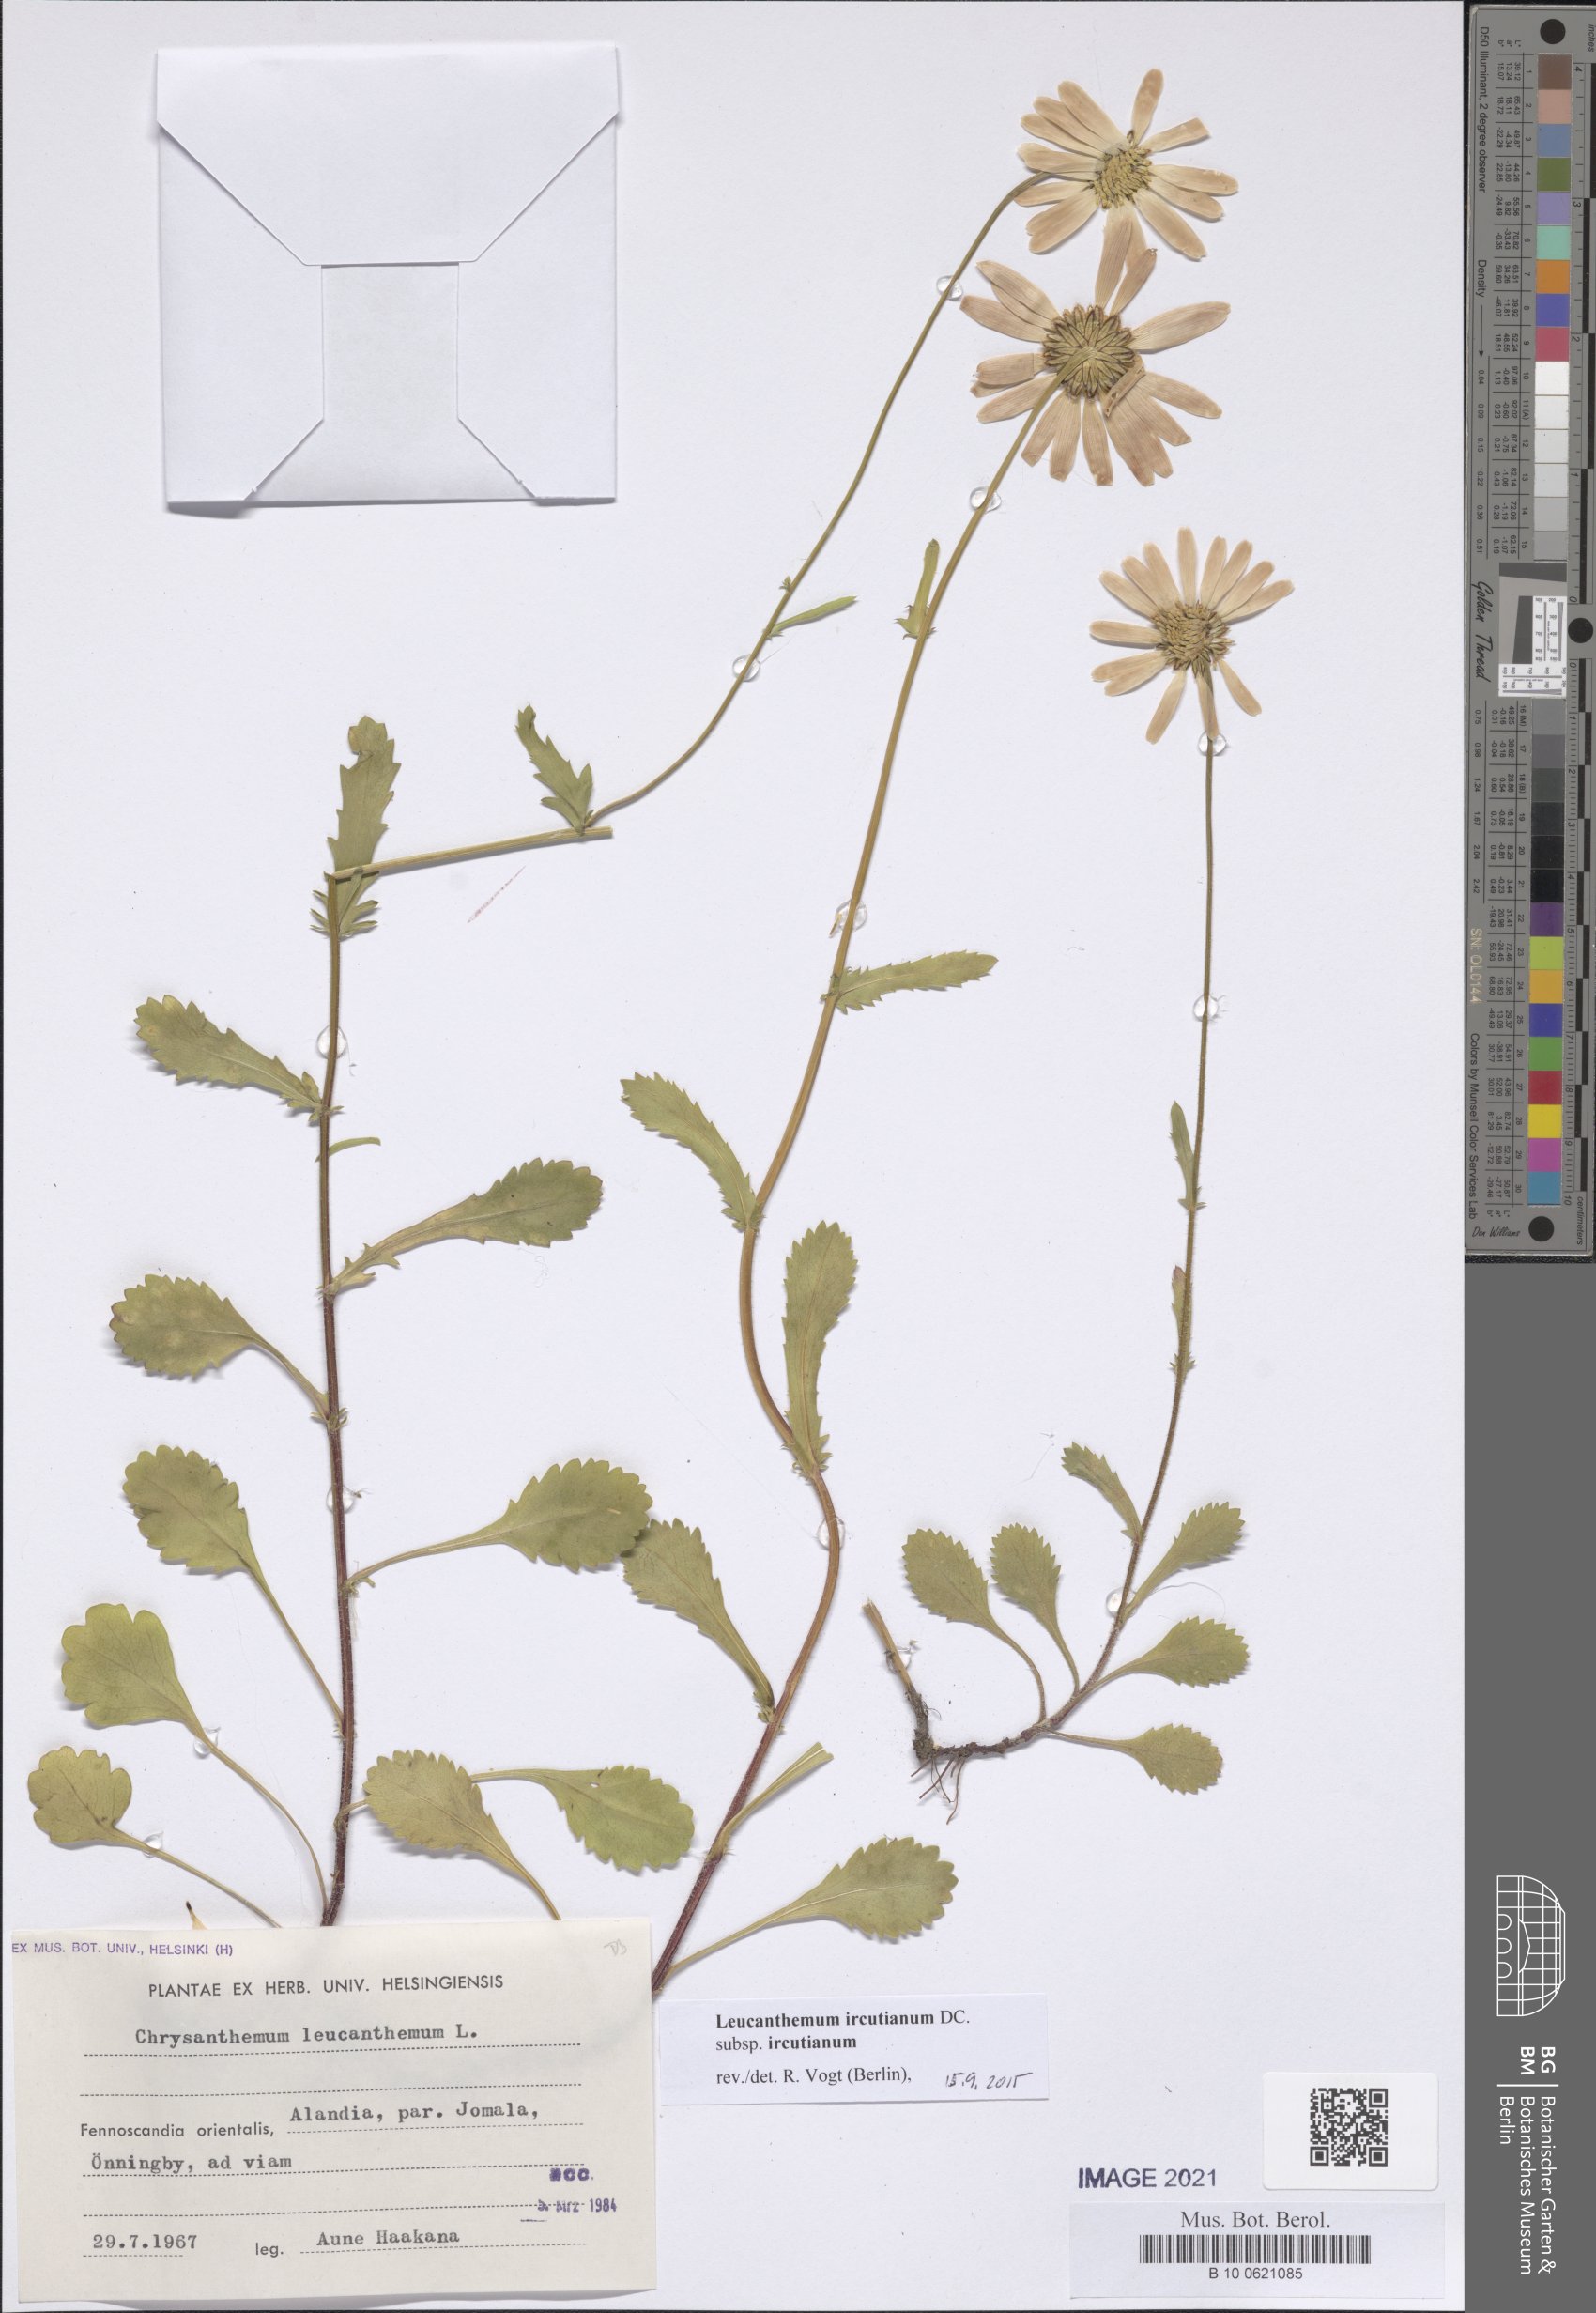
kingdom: Plantae
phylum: Tracheophyta
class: Magnoliopsida
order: Asterales
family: Asteraceae
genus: Leucanthemum
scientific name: Leucanthemum ircutianum
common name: Daisy
